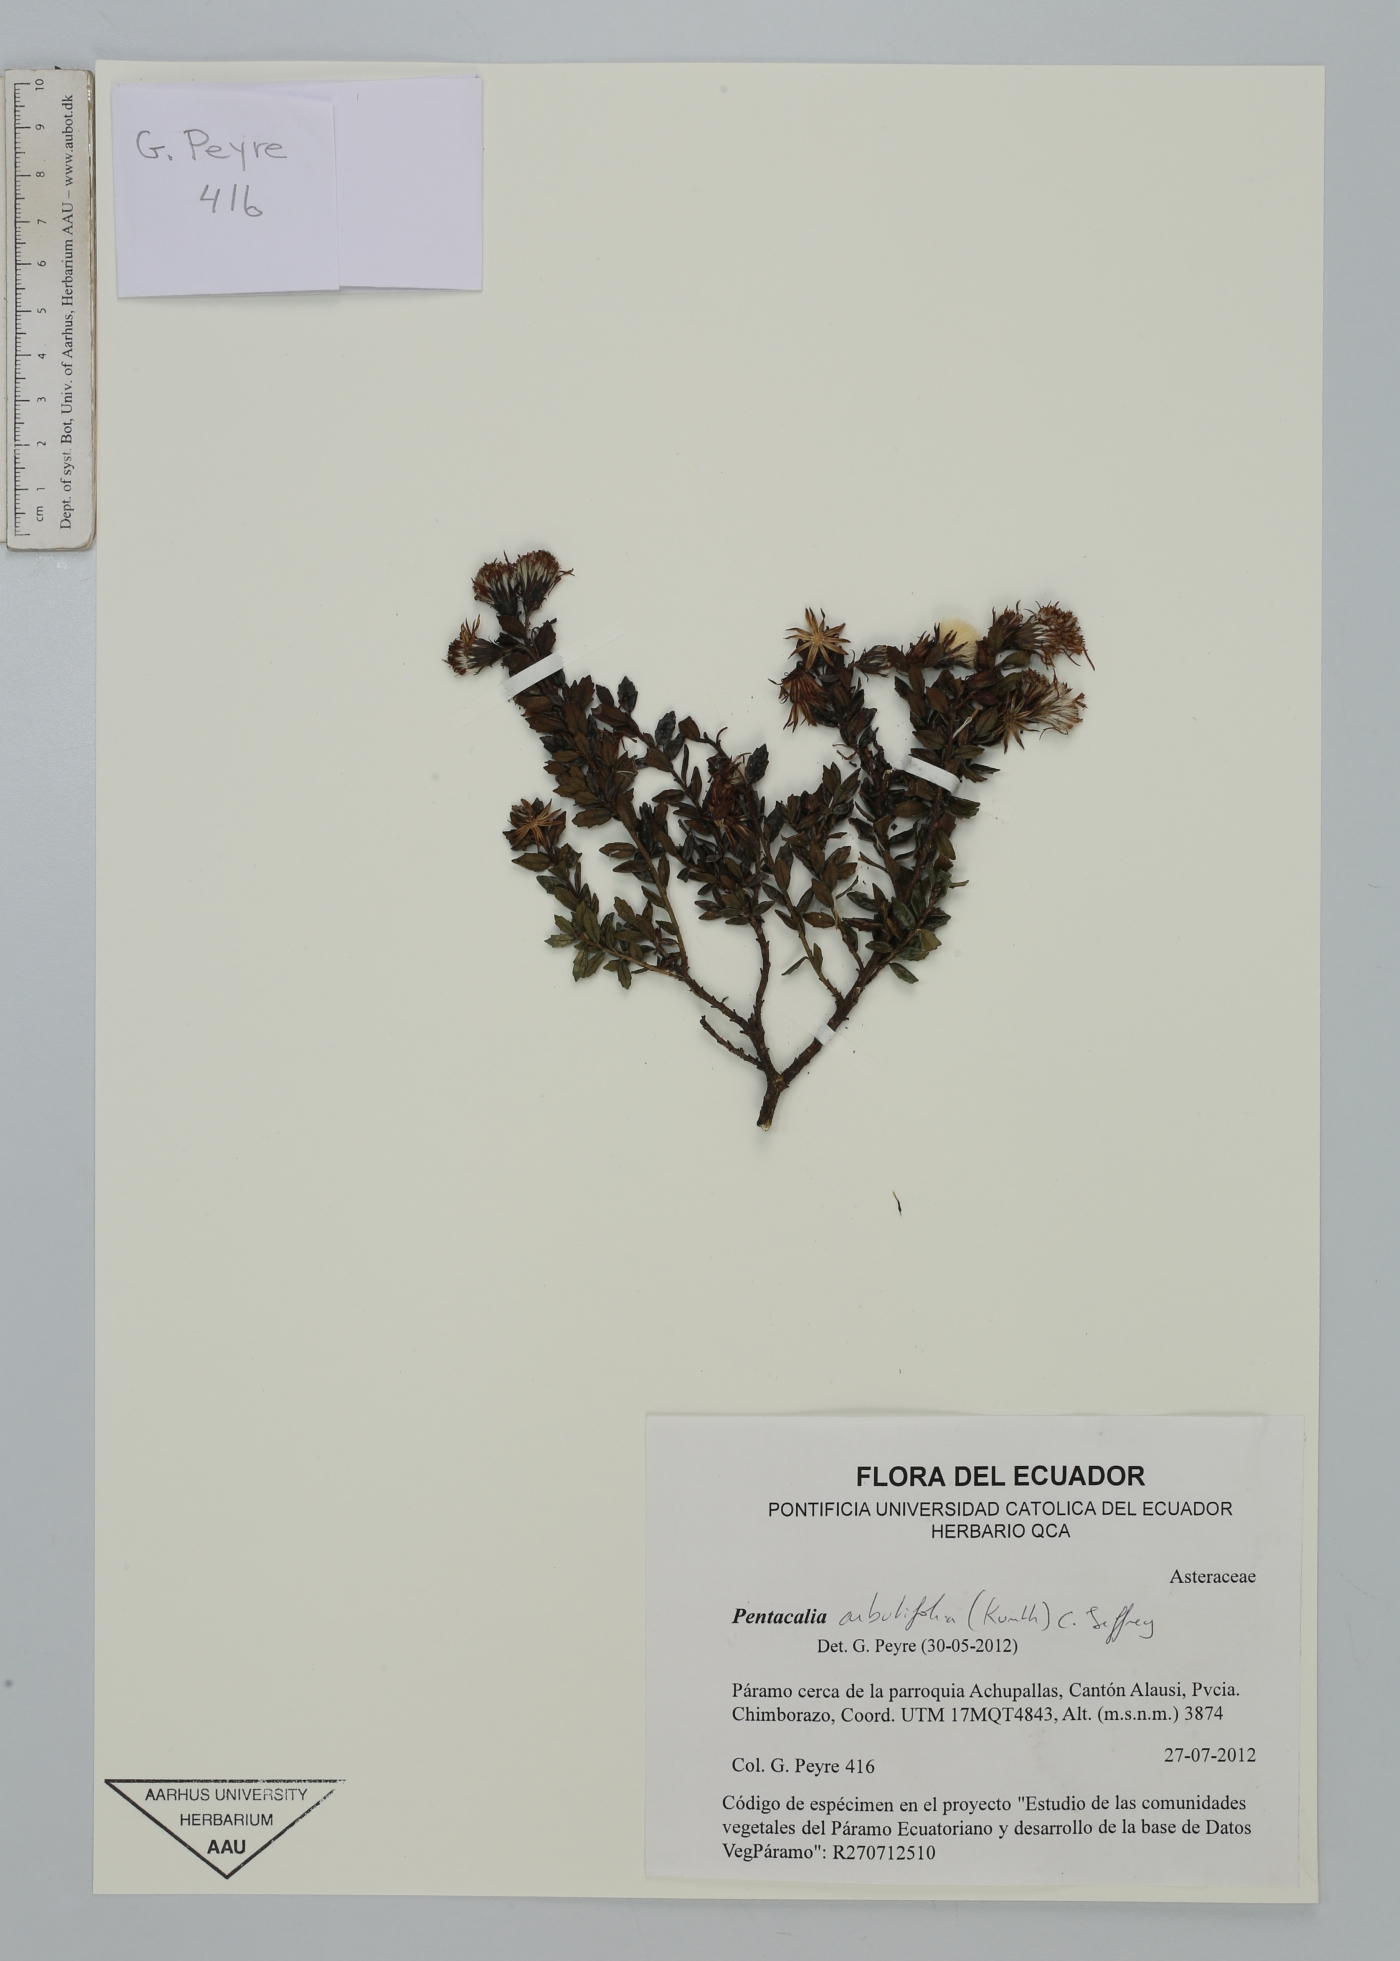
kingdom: Plantae
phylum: Tracheophyta
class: Magnoliopsida
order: Asterales
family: Asteraceae
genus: Monticalia
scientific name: Monticalia arbutifolia
